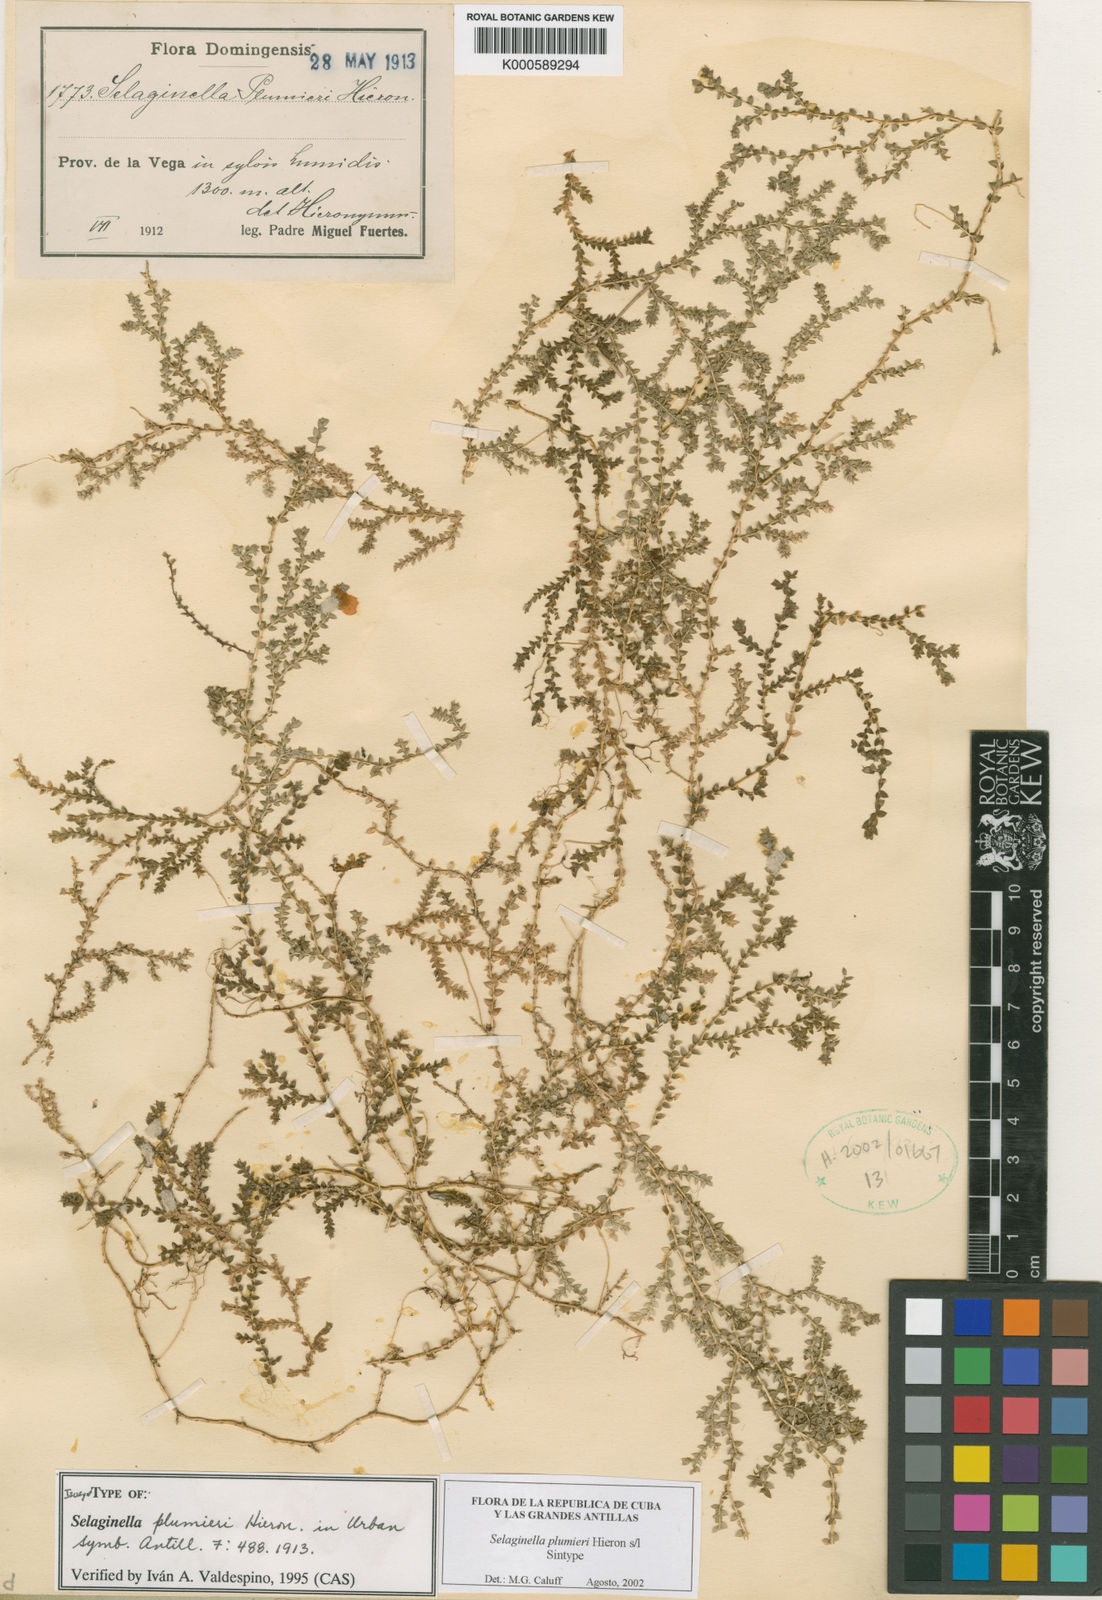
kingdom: Plantae
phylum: Tracheophyta
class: Lycopodiopsida
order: Selaginellales
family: Selaginellaceae
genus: Selaginella
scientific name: Selaginella plumieri
